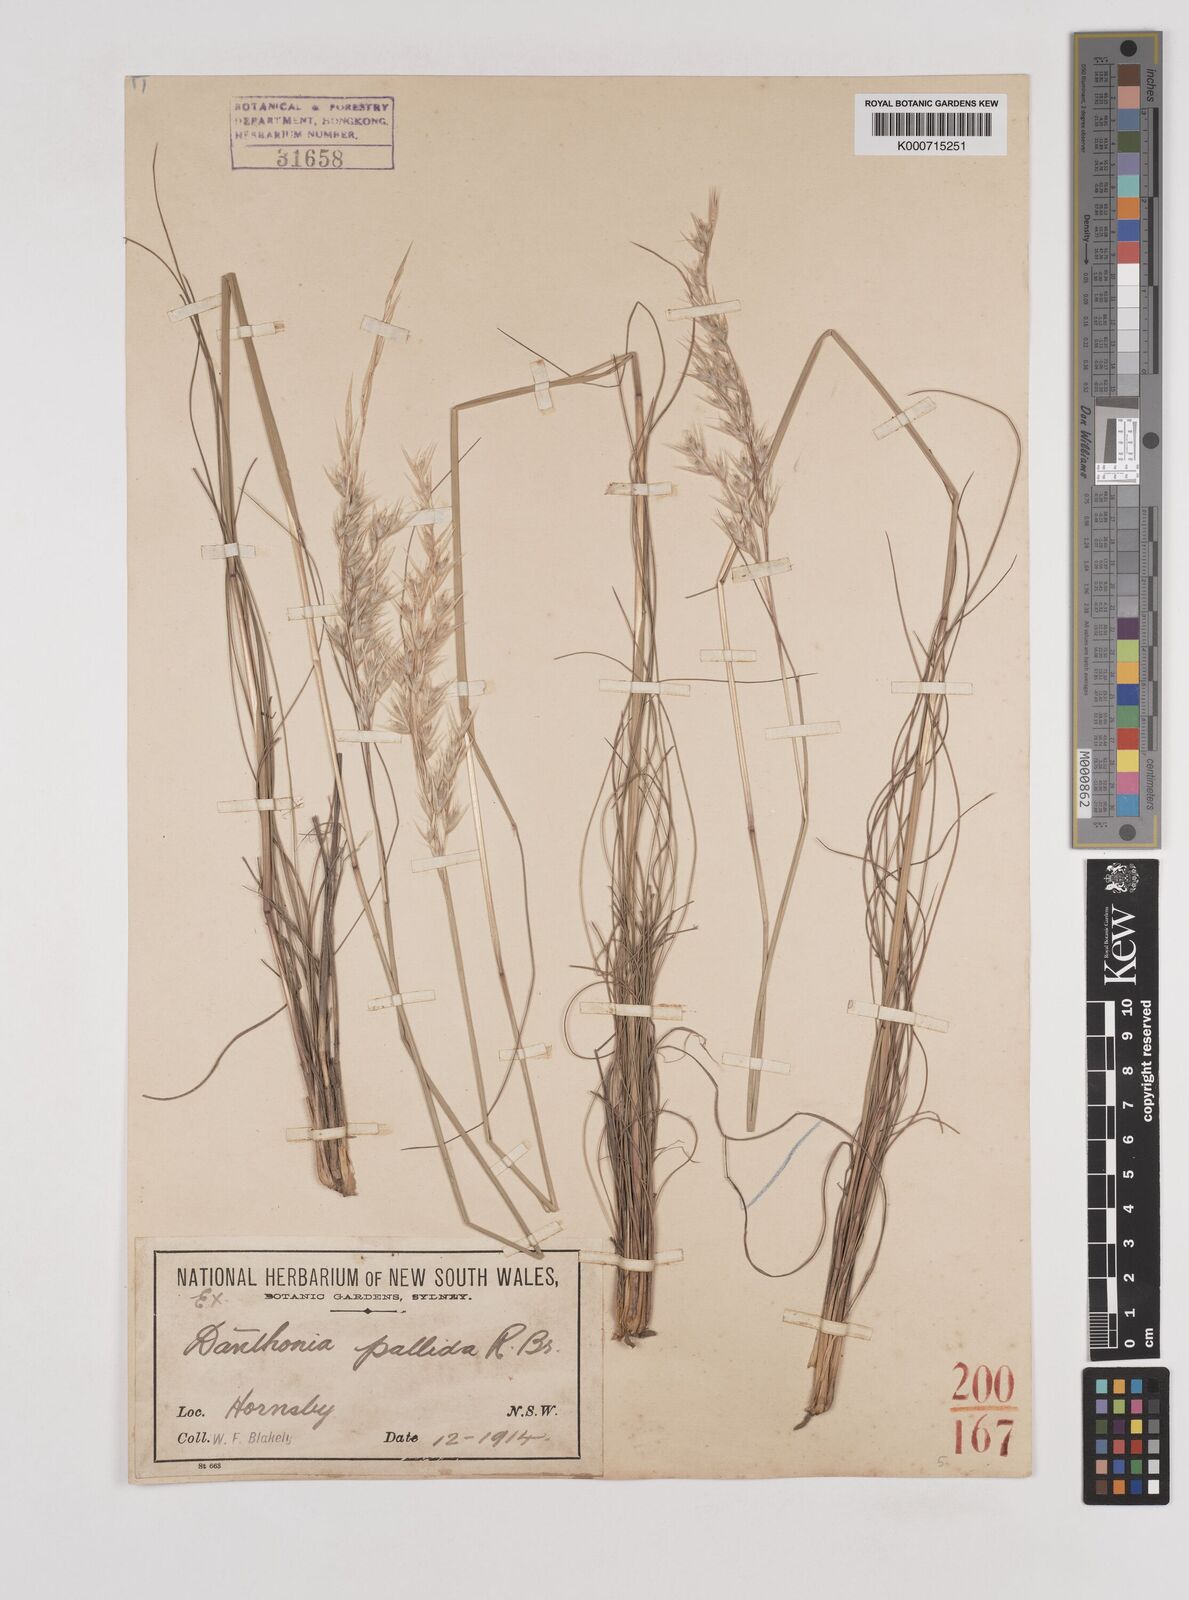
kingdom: Plantae
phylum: Tracheophyta
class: Liliopsida
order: Poales
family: Poaceae
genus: Rytidosperma
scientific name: Rytidosperma
